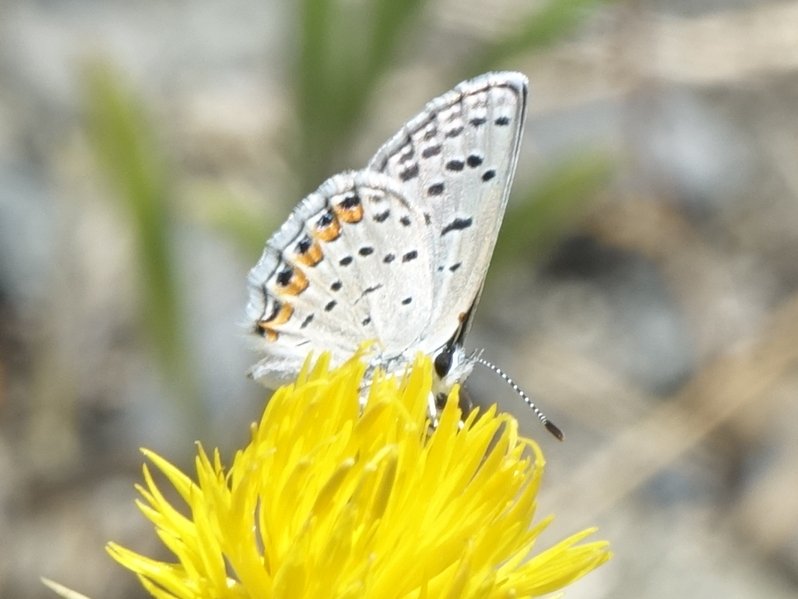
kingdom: Animalia
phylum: Arthropoda
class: Insecta
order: Lepidoptera
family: Lycaenidae
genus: Plebejus
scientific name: Plebejus acmon
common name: Acmon Blue
